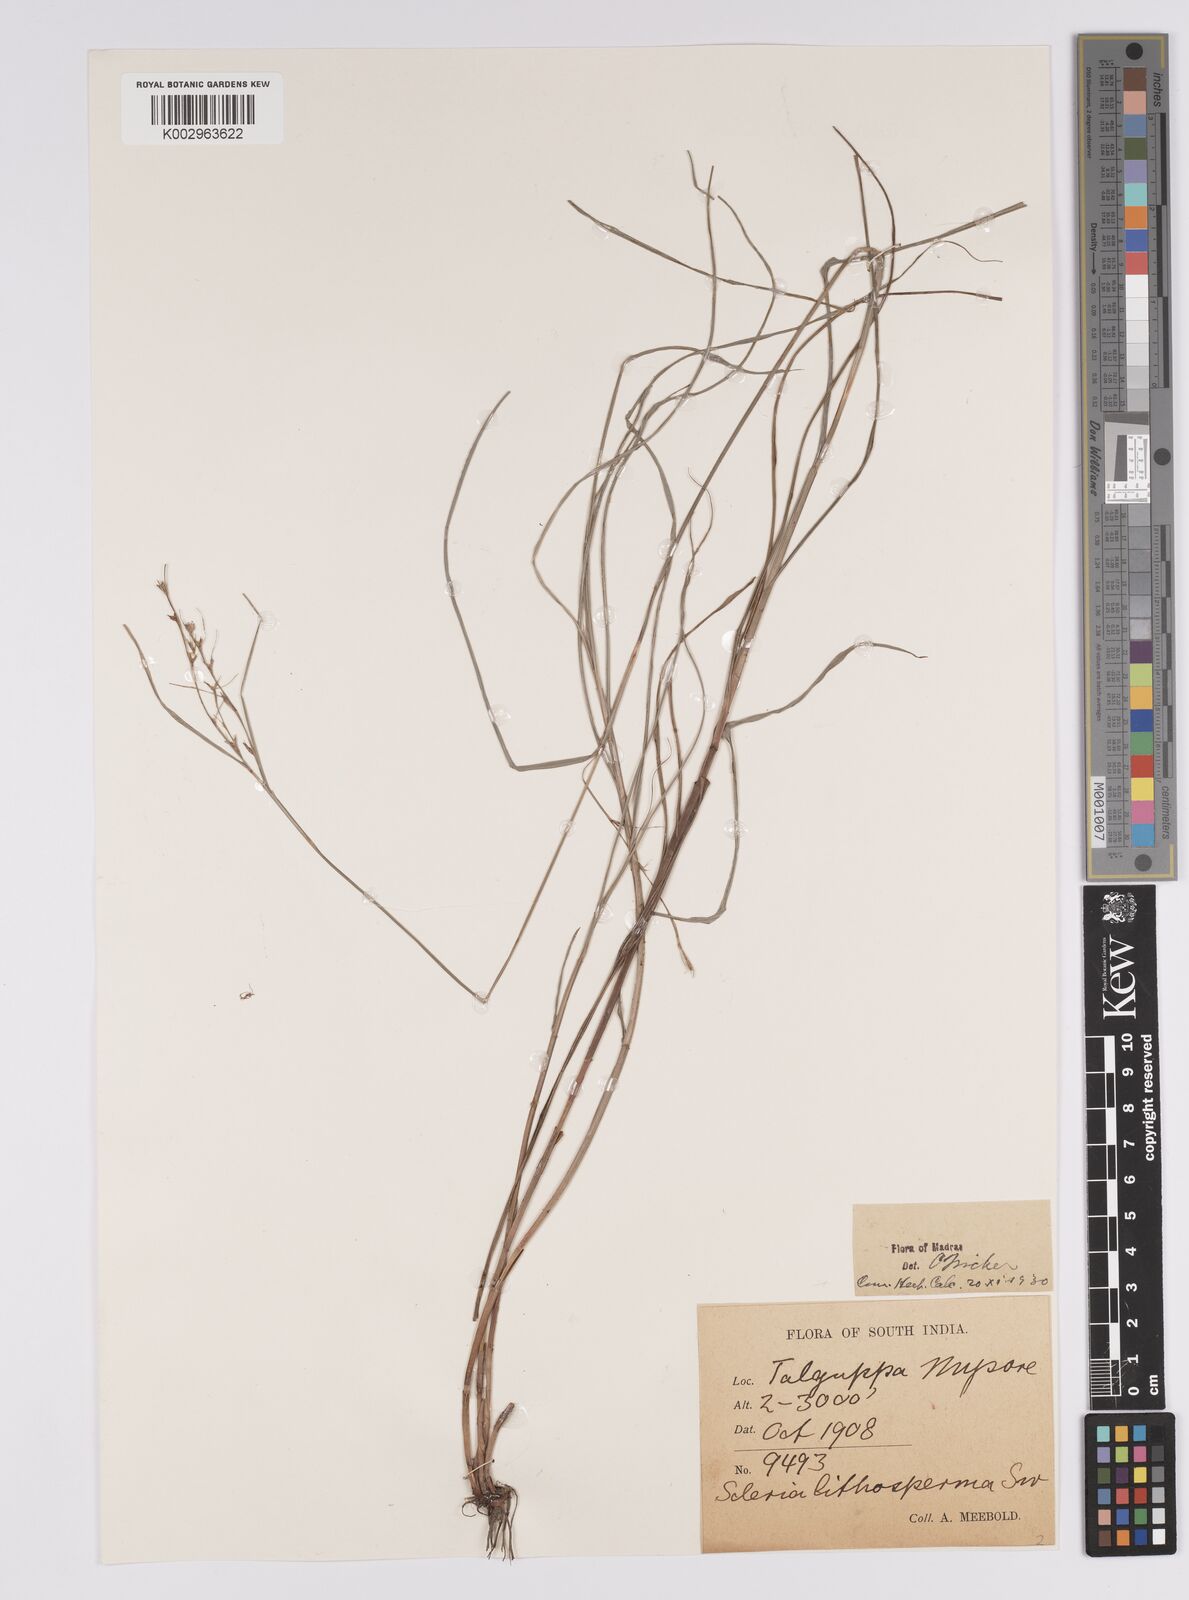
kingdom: Plantae
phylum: Tracheophyta
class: Liliopsida
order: Poales
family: Cyperaceae
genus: Scleria
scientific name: Scleria lithosperma
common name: Florida keys nut-rush
